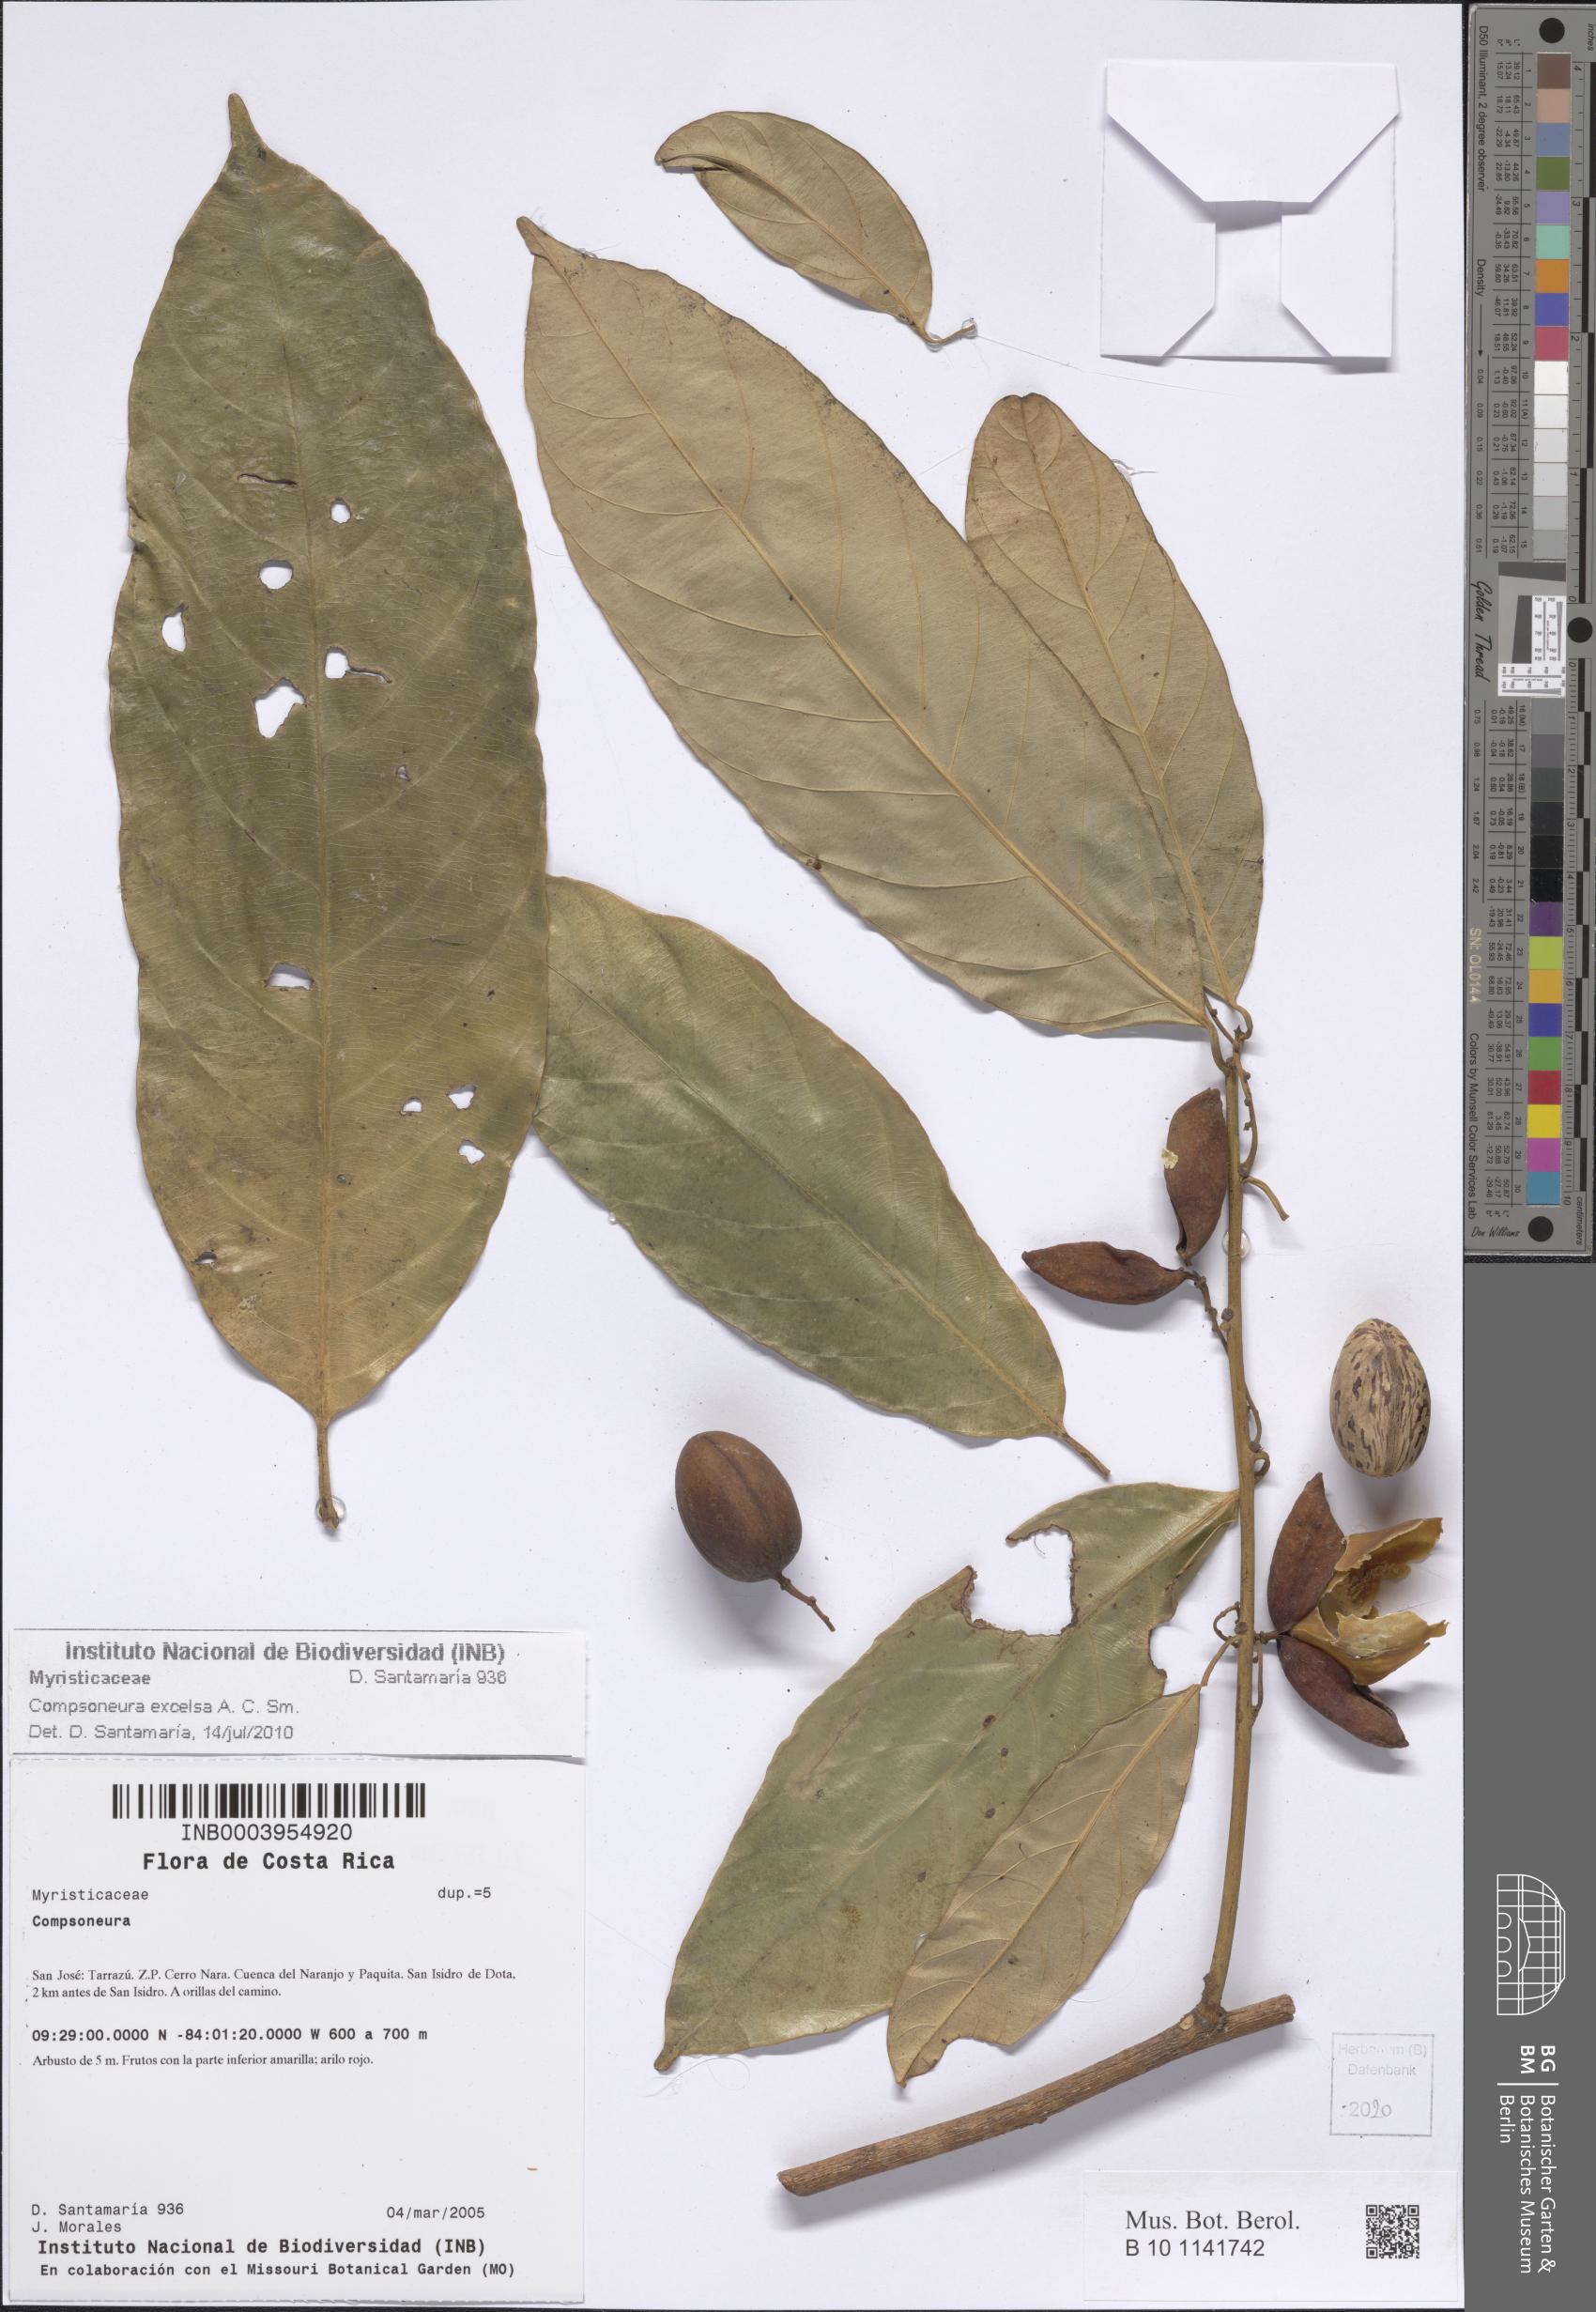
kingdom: Plantae
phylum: Tracheophyta
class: Magnoliopsida
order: Magnoliales
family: Myristicaceae
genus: Compsoneura
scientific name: Compsoneura excelsa
